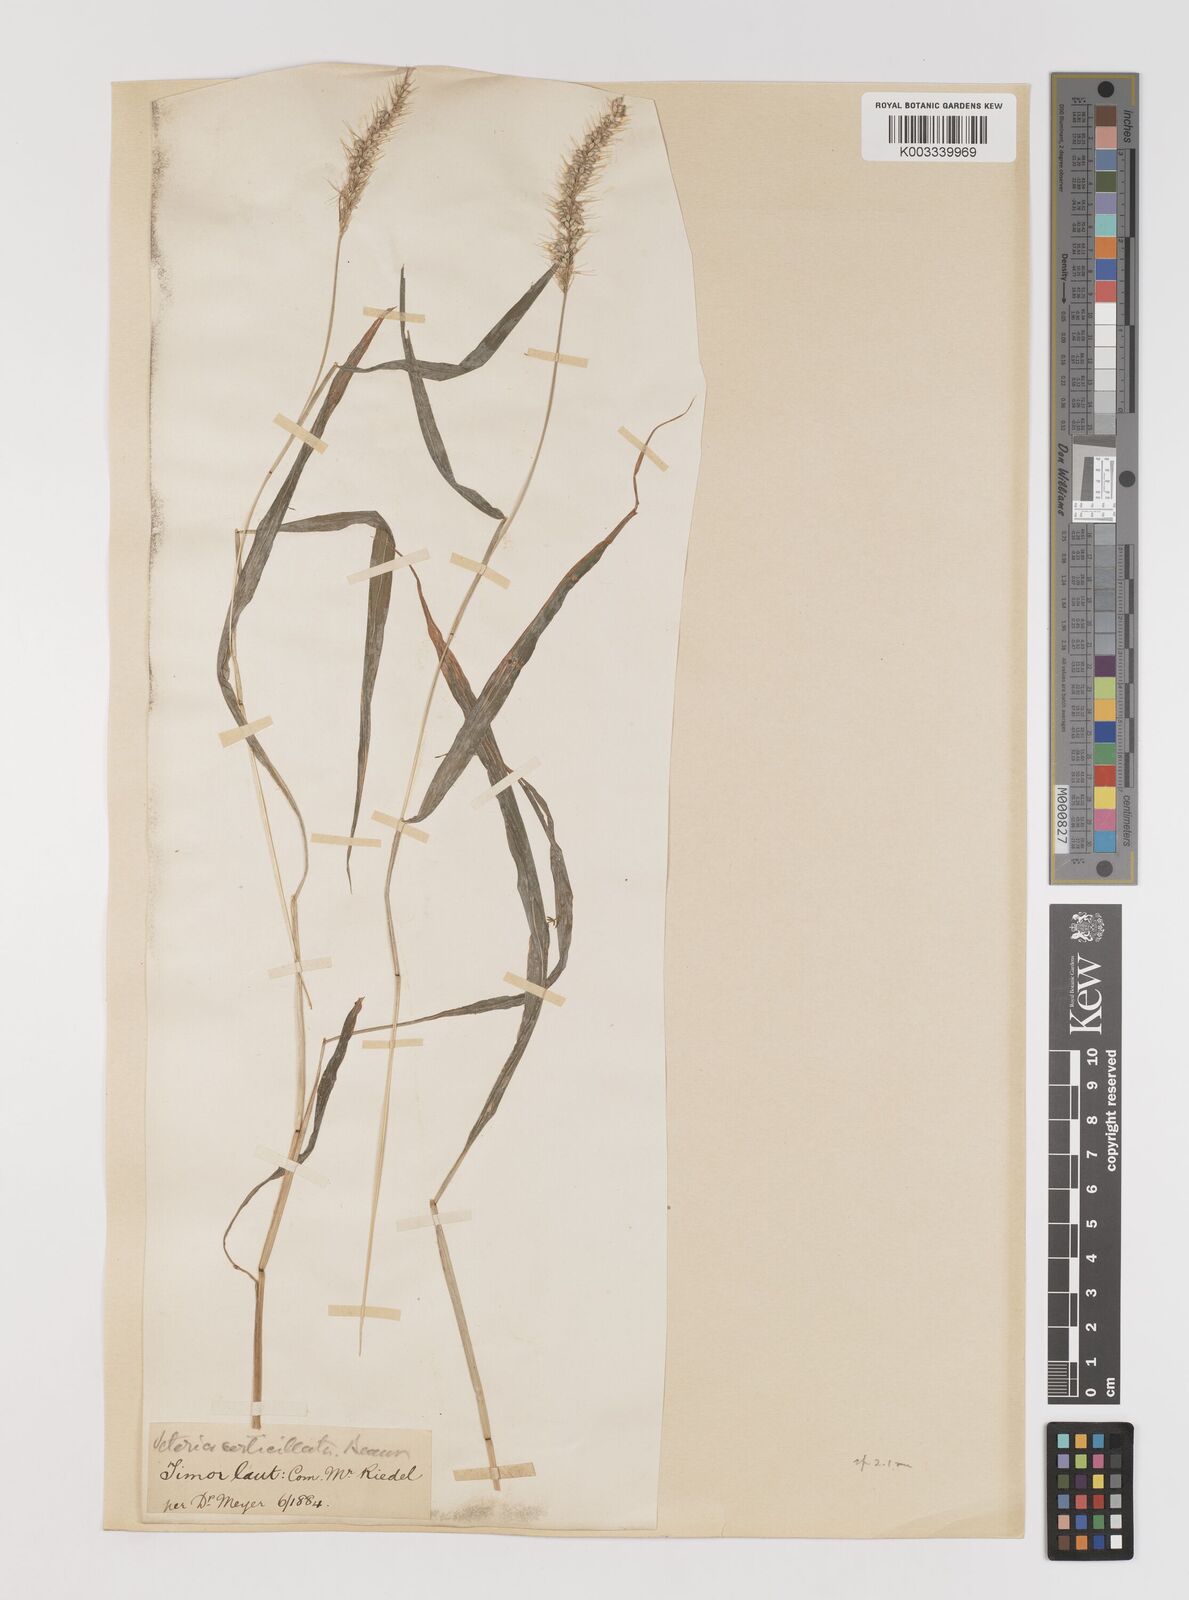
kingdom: Plantae
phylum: Tracheophyta
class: Liliopsida
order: Poales
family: Poaceae
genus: Setaria
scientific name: Setaria verticillata
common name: Hooked bristlegrass
